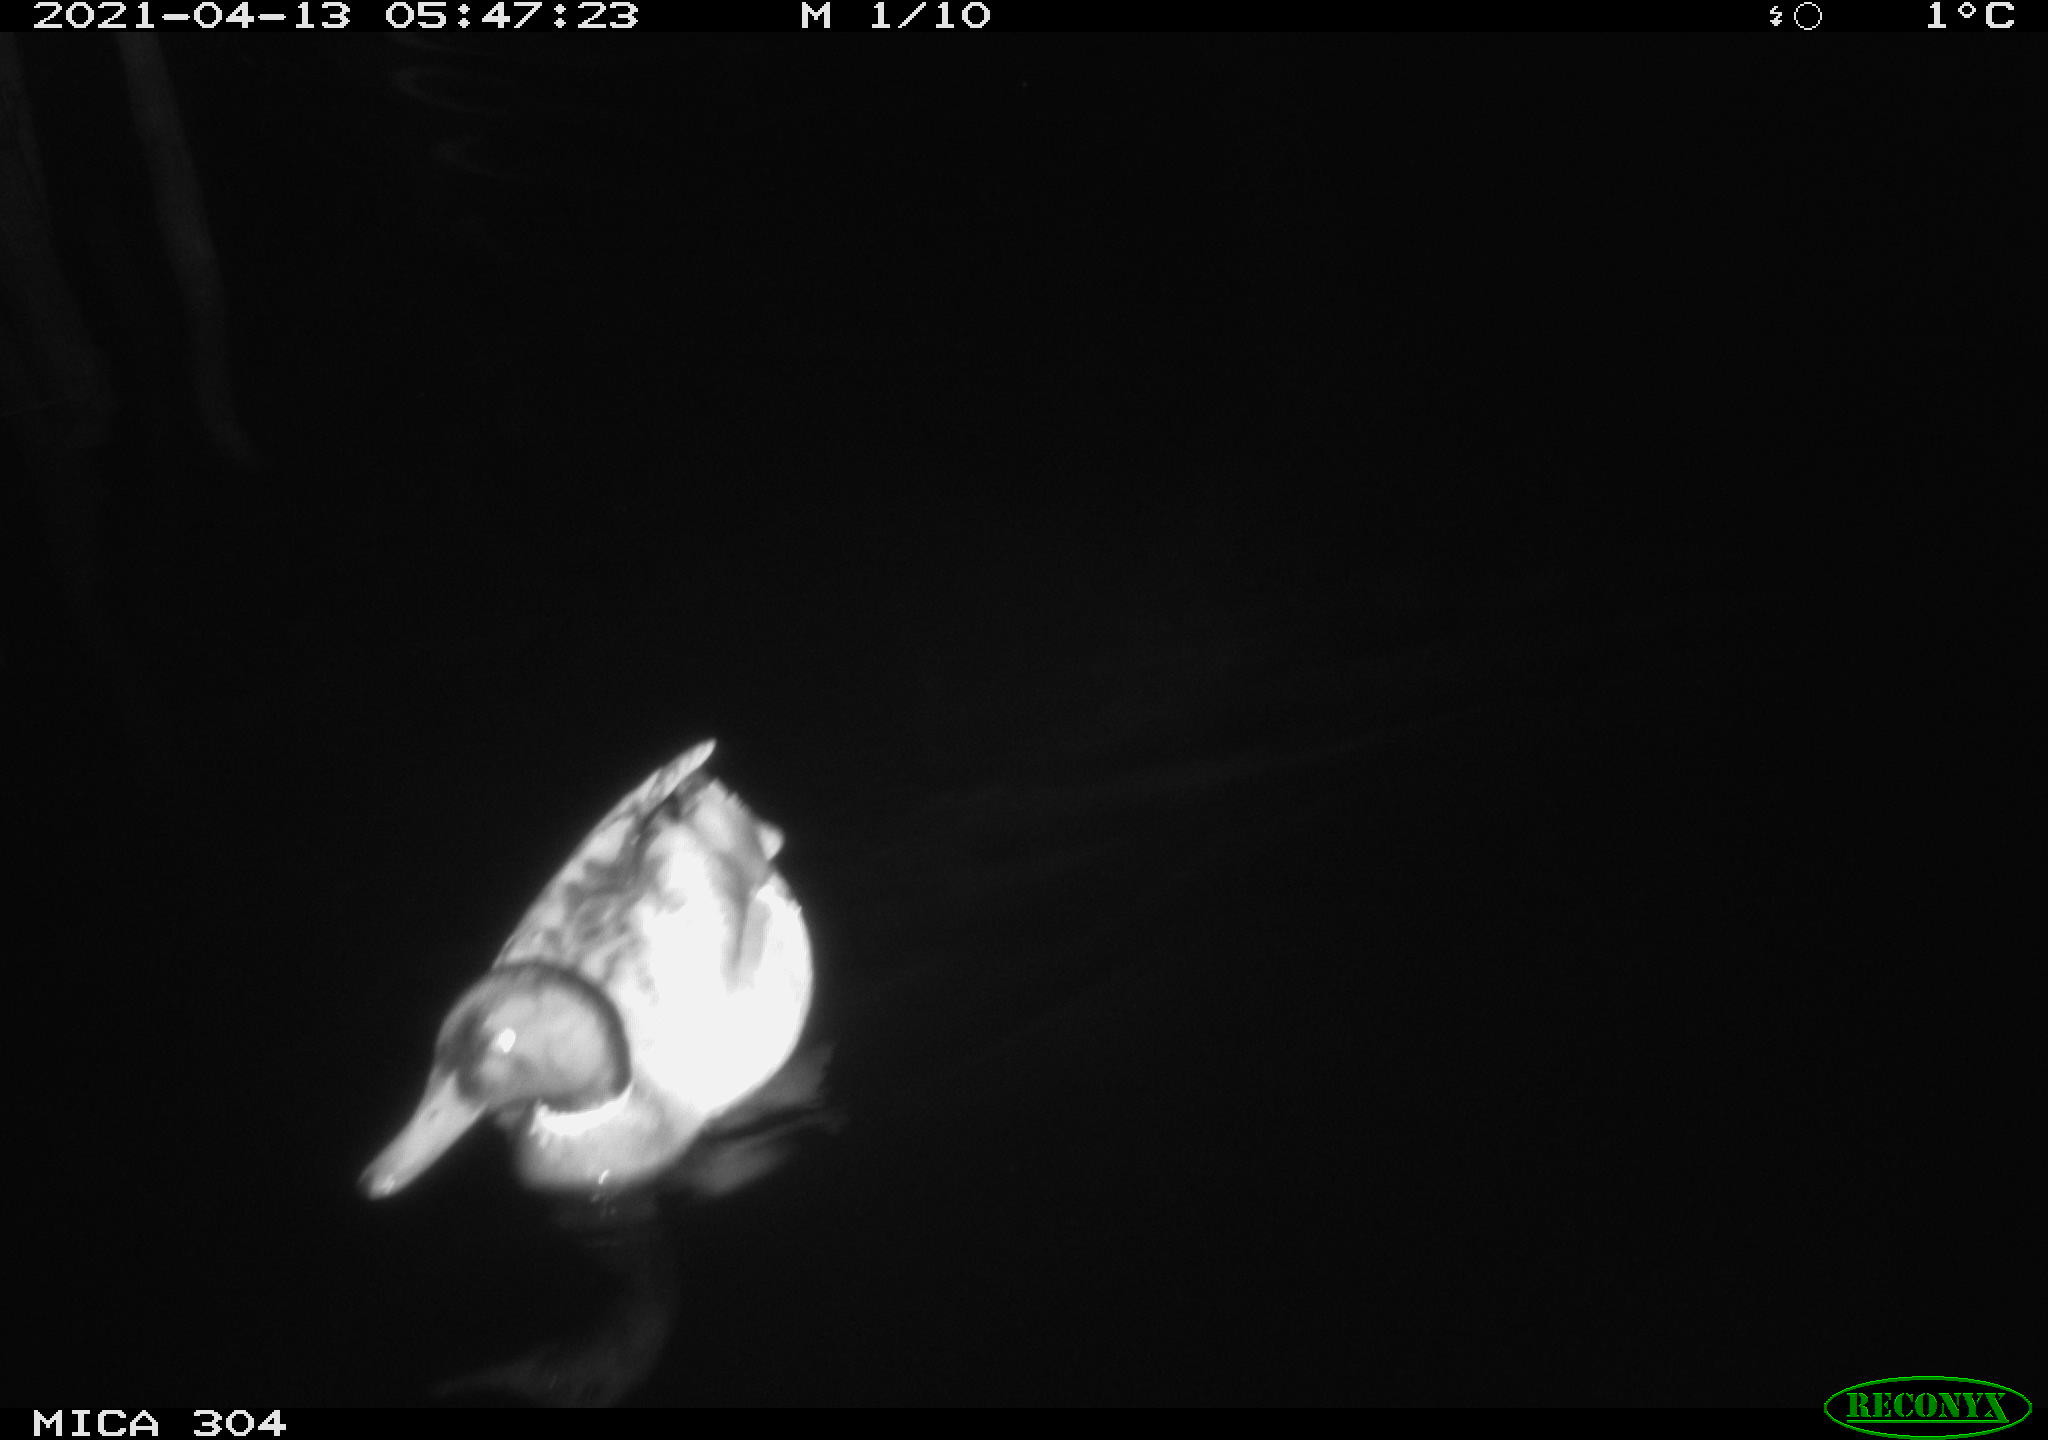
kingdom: Animalia
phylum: Chordata
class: Aves
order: Anseriformes
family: Anatidae
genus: Anas
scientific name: Anas
